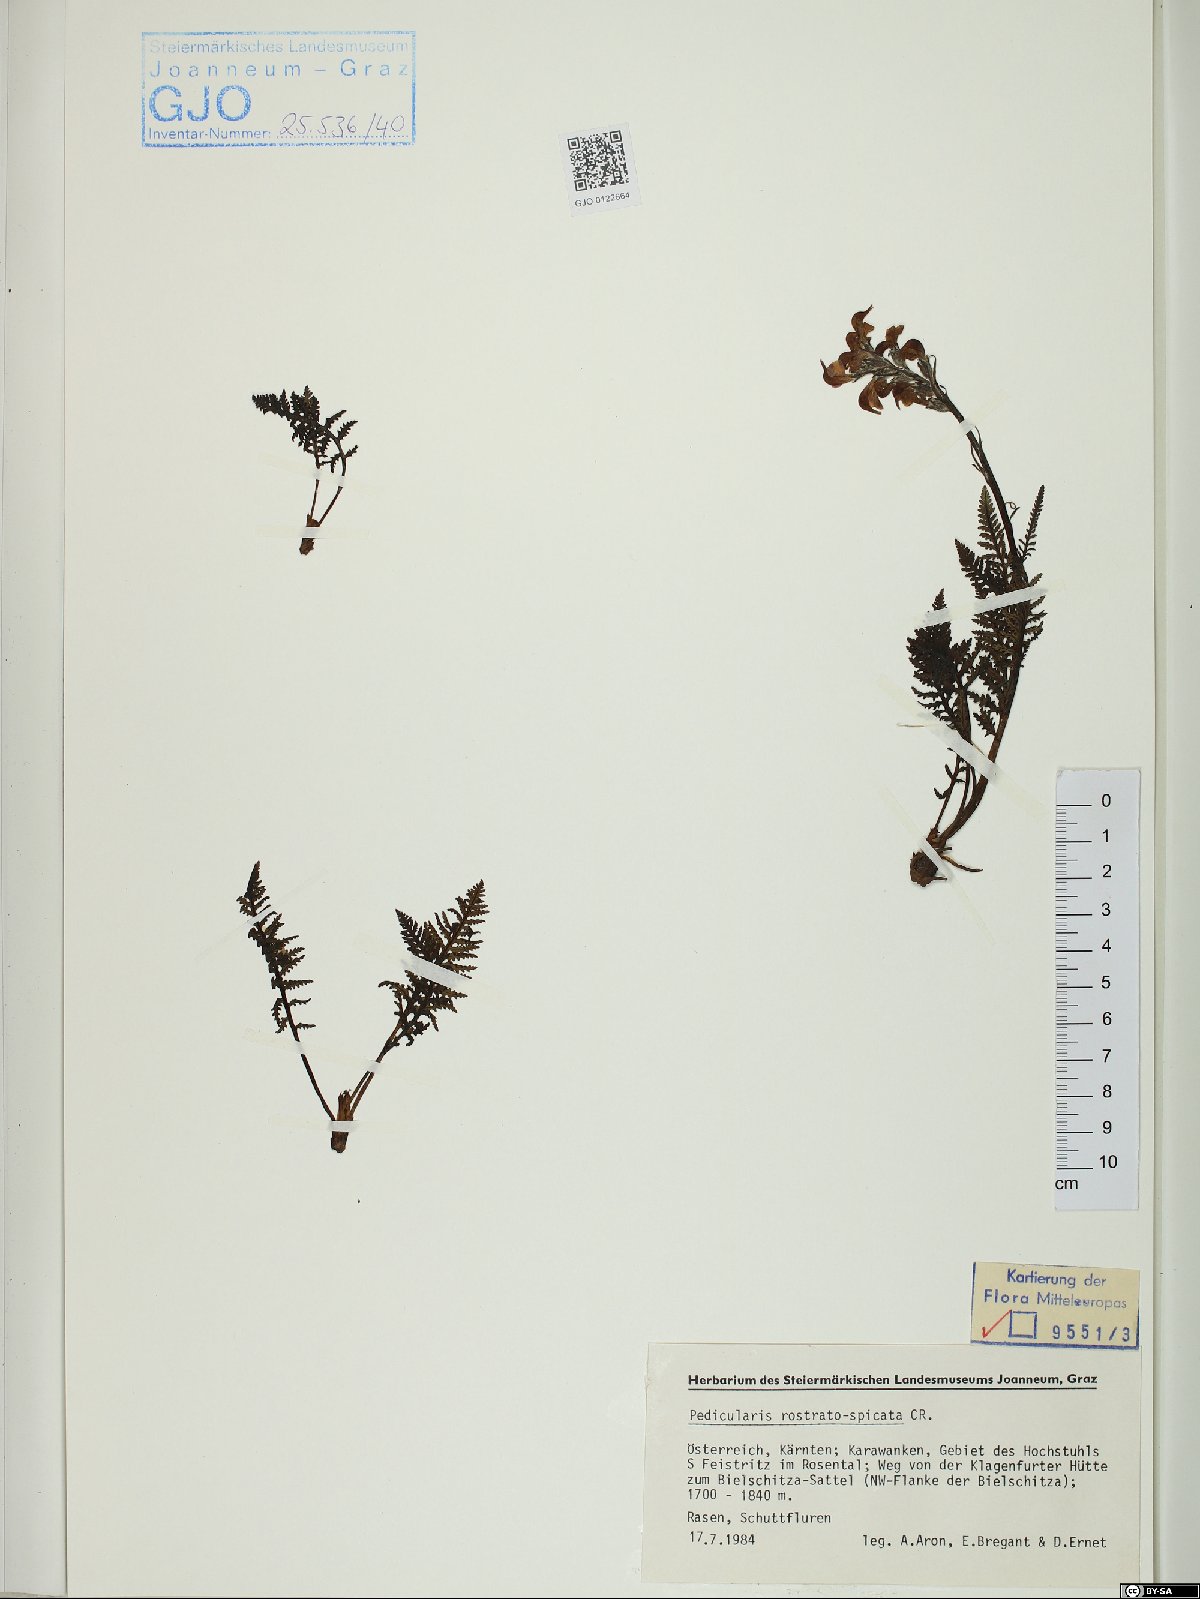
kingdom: Plantae
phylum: Tracheophyta
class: Magnoliopsida
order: Lamiales
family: Orobanchaceae
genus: Pedicularis
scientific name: Pedicularis rostratospicata
